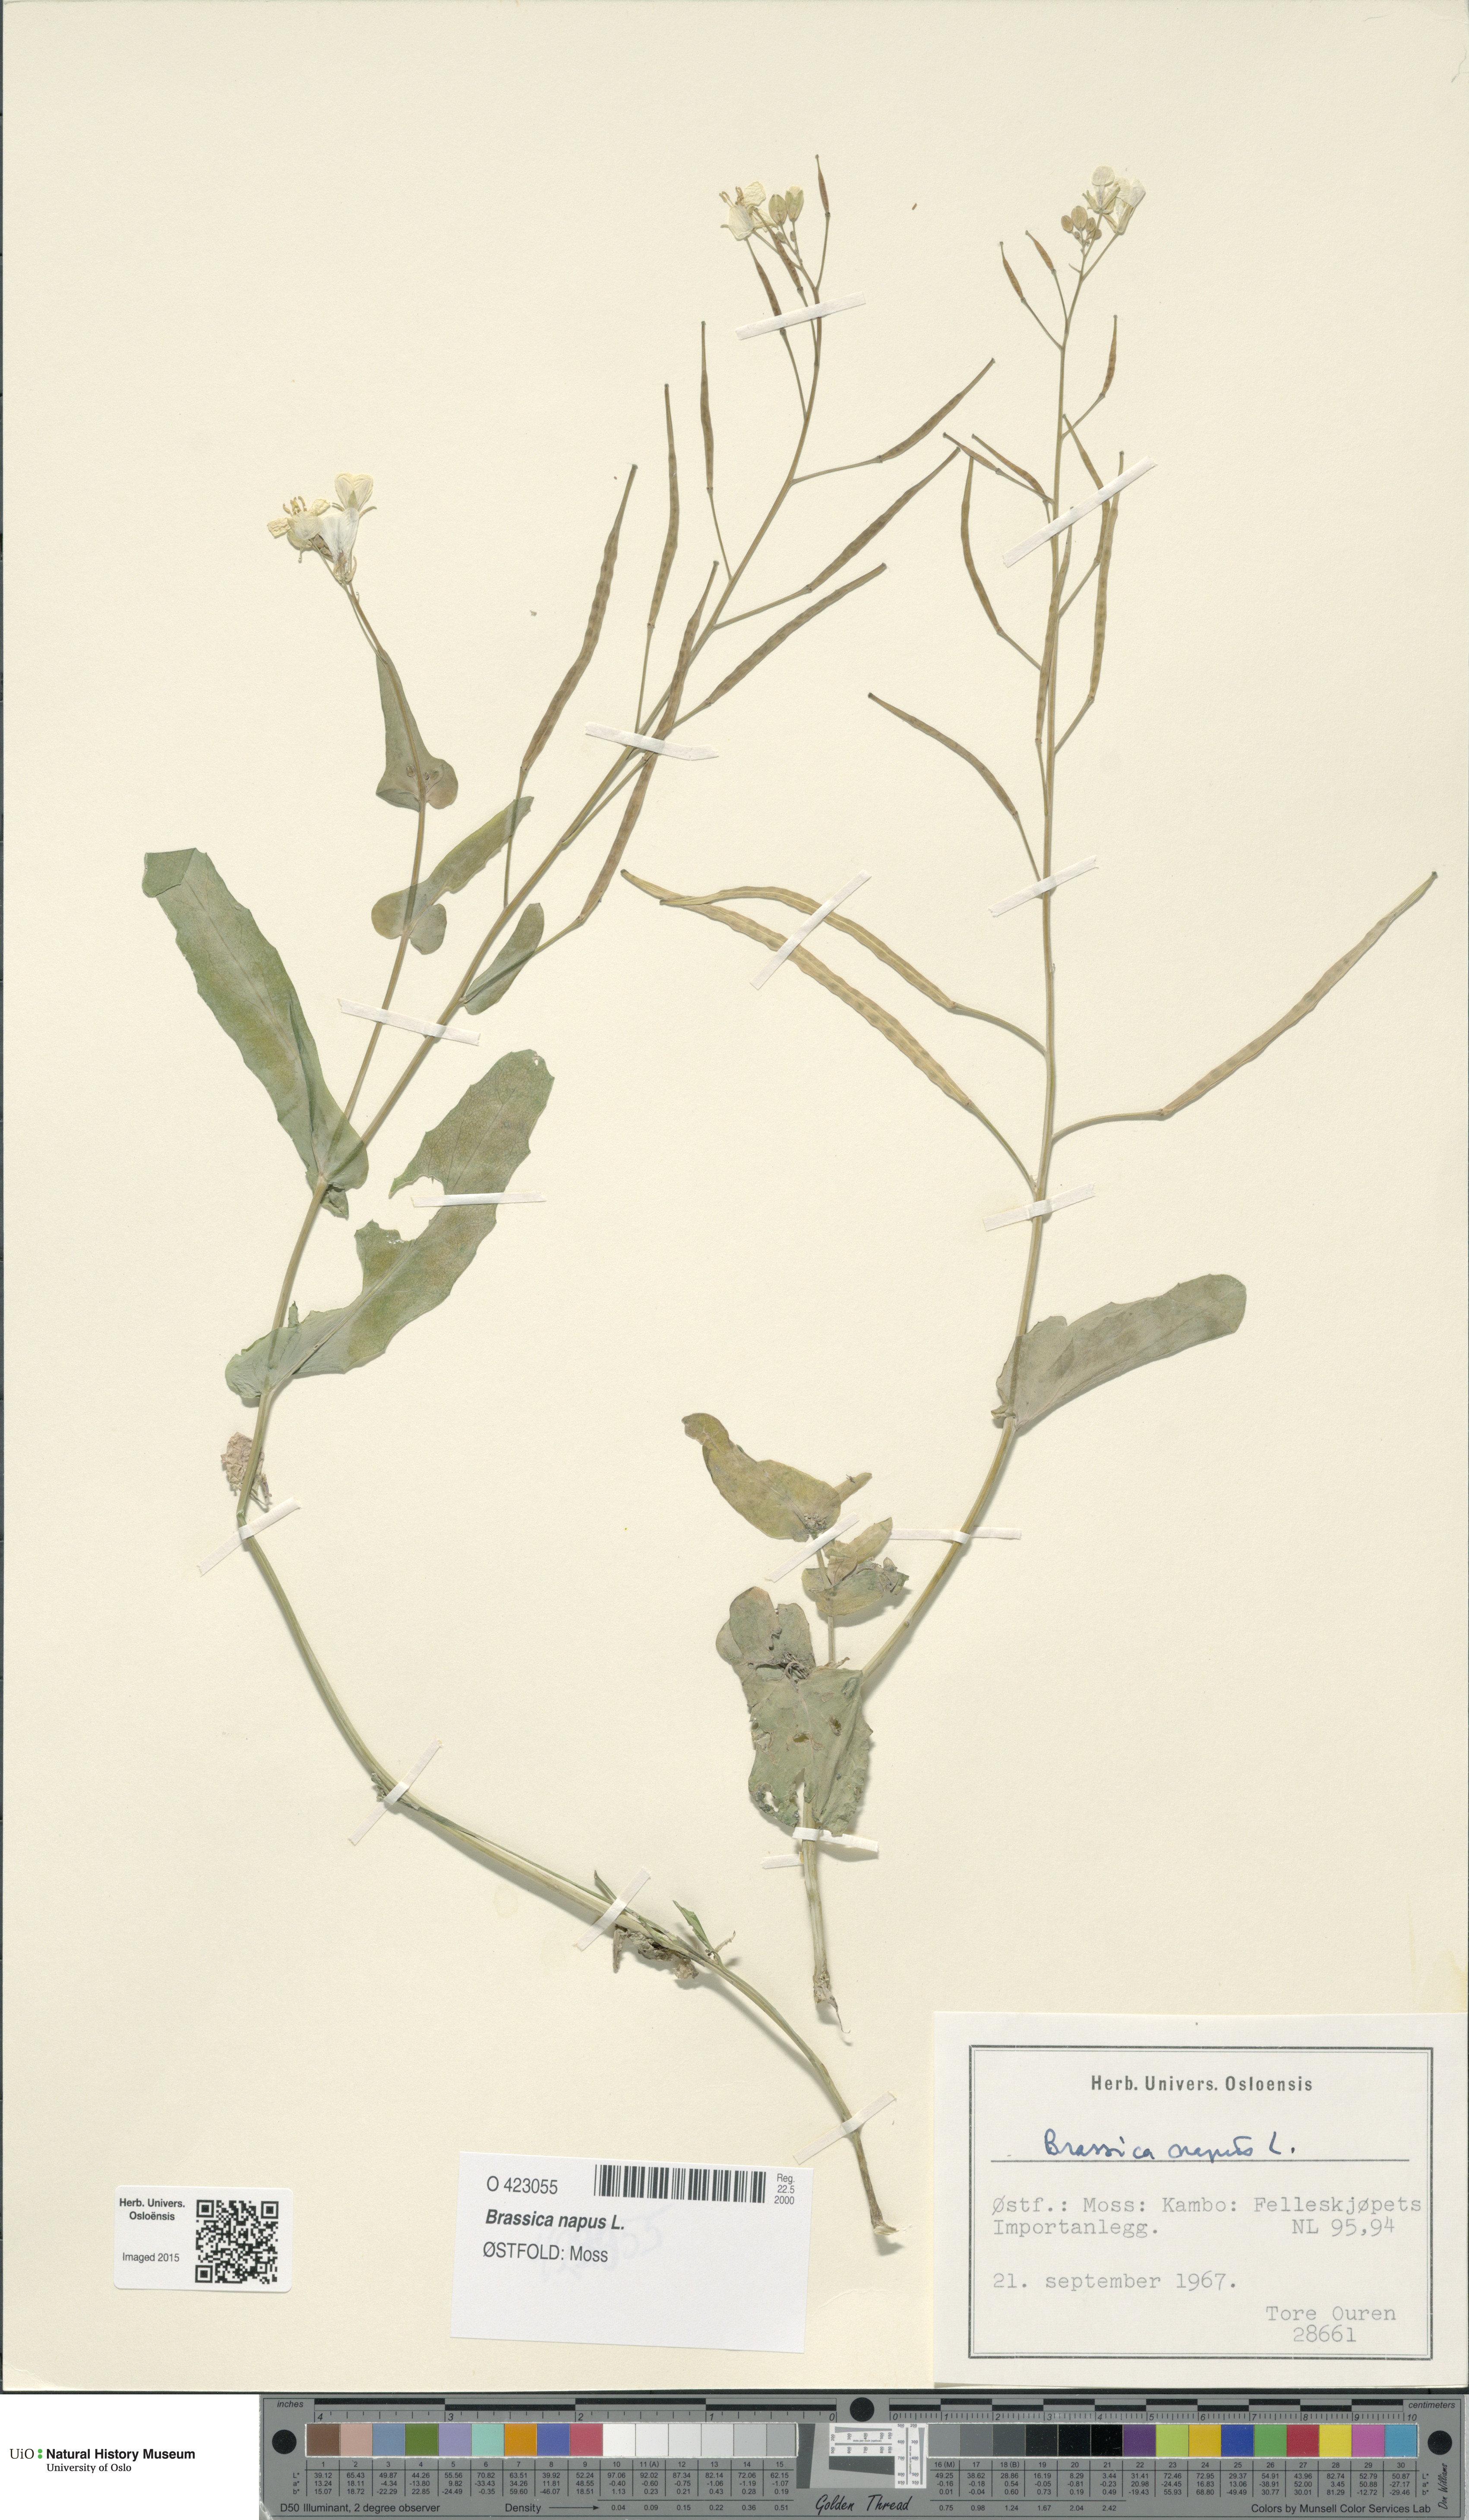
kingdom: Plantae
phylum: Tracheophyta
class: Magnoliopsida
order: Brassicales
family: Brassicaceae
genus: Brassica
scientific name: Brassica napus
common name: Rape
